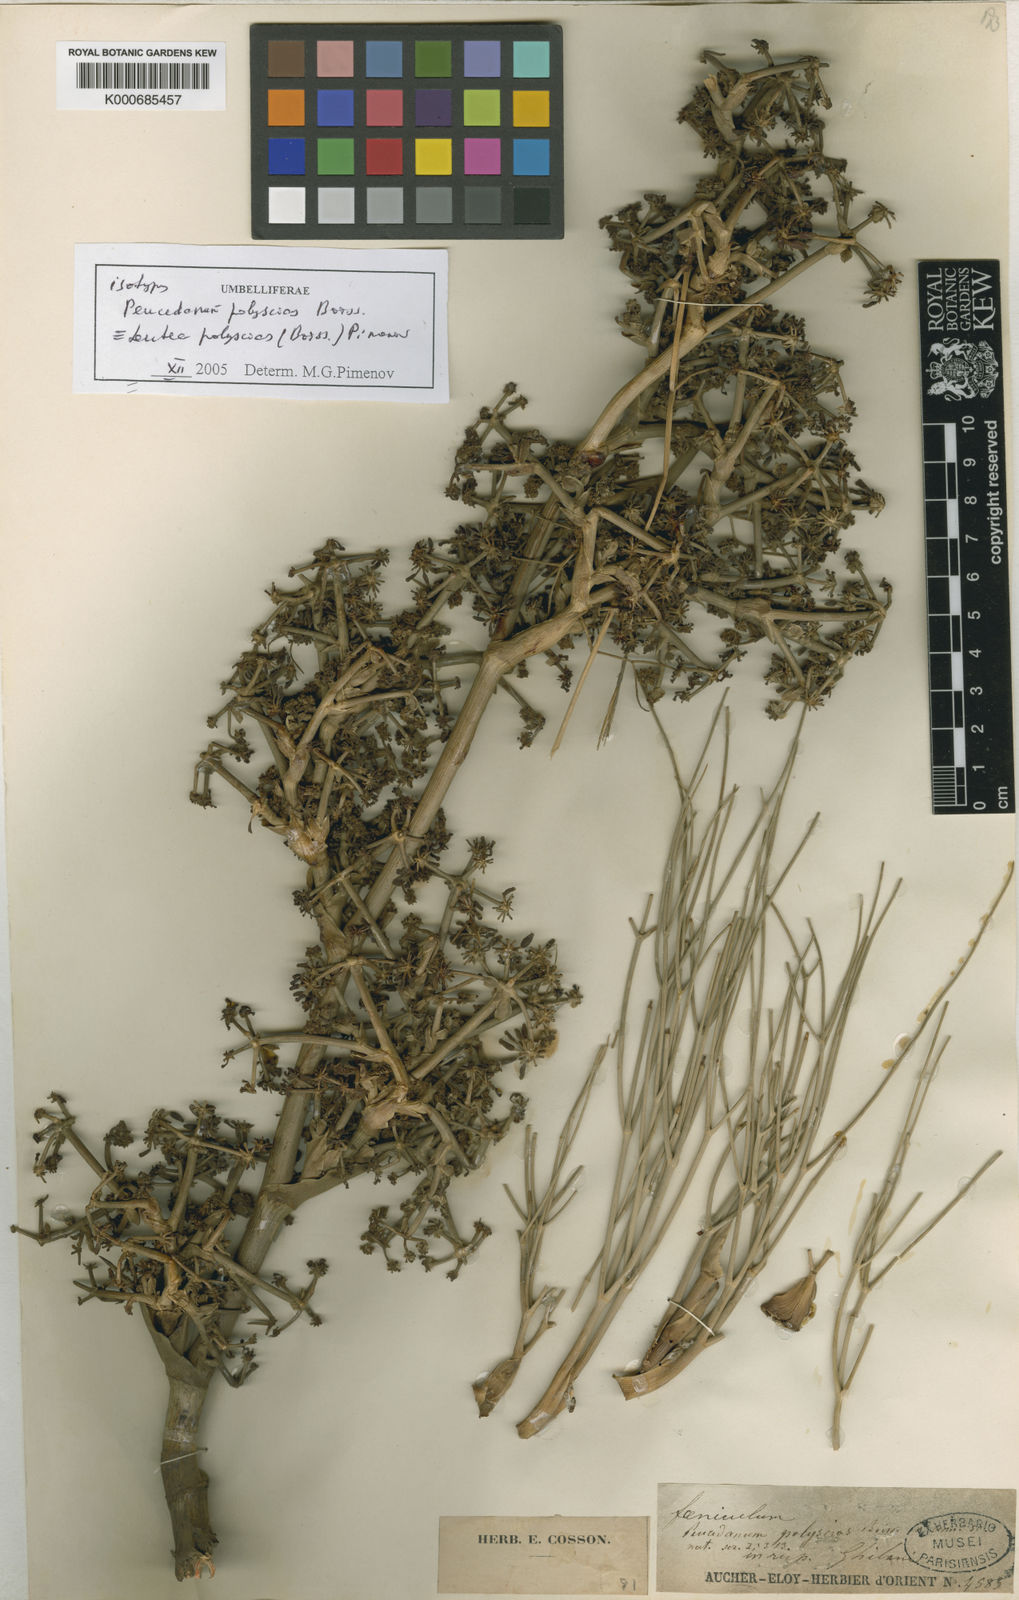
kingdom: Plantae
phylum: Tracheophyta
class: Magnoliopsida
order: Apiales
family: Apiaceae
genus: Leutea
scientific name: Leutea polyscias
